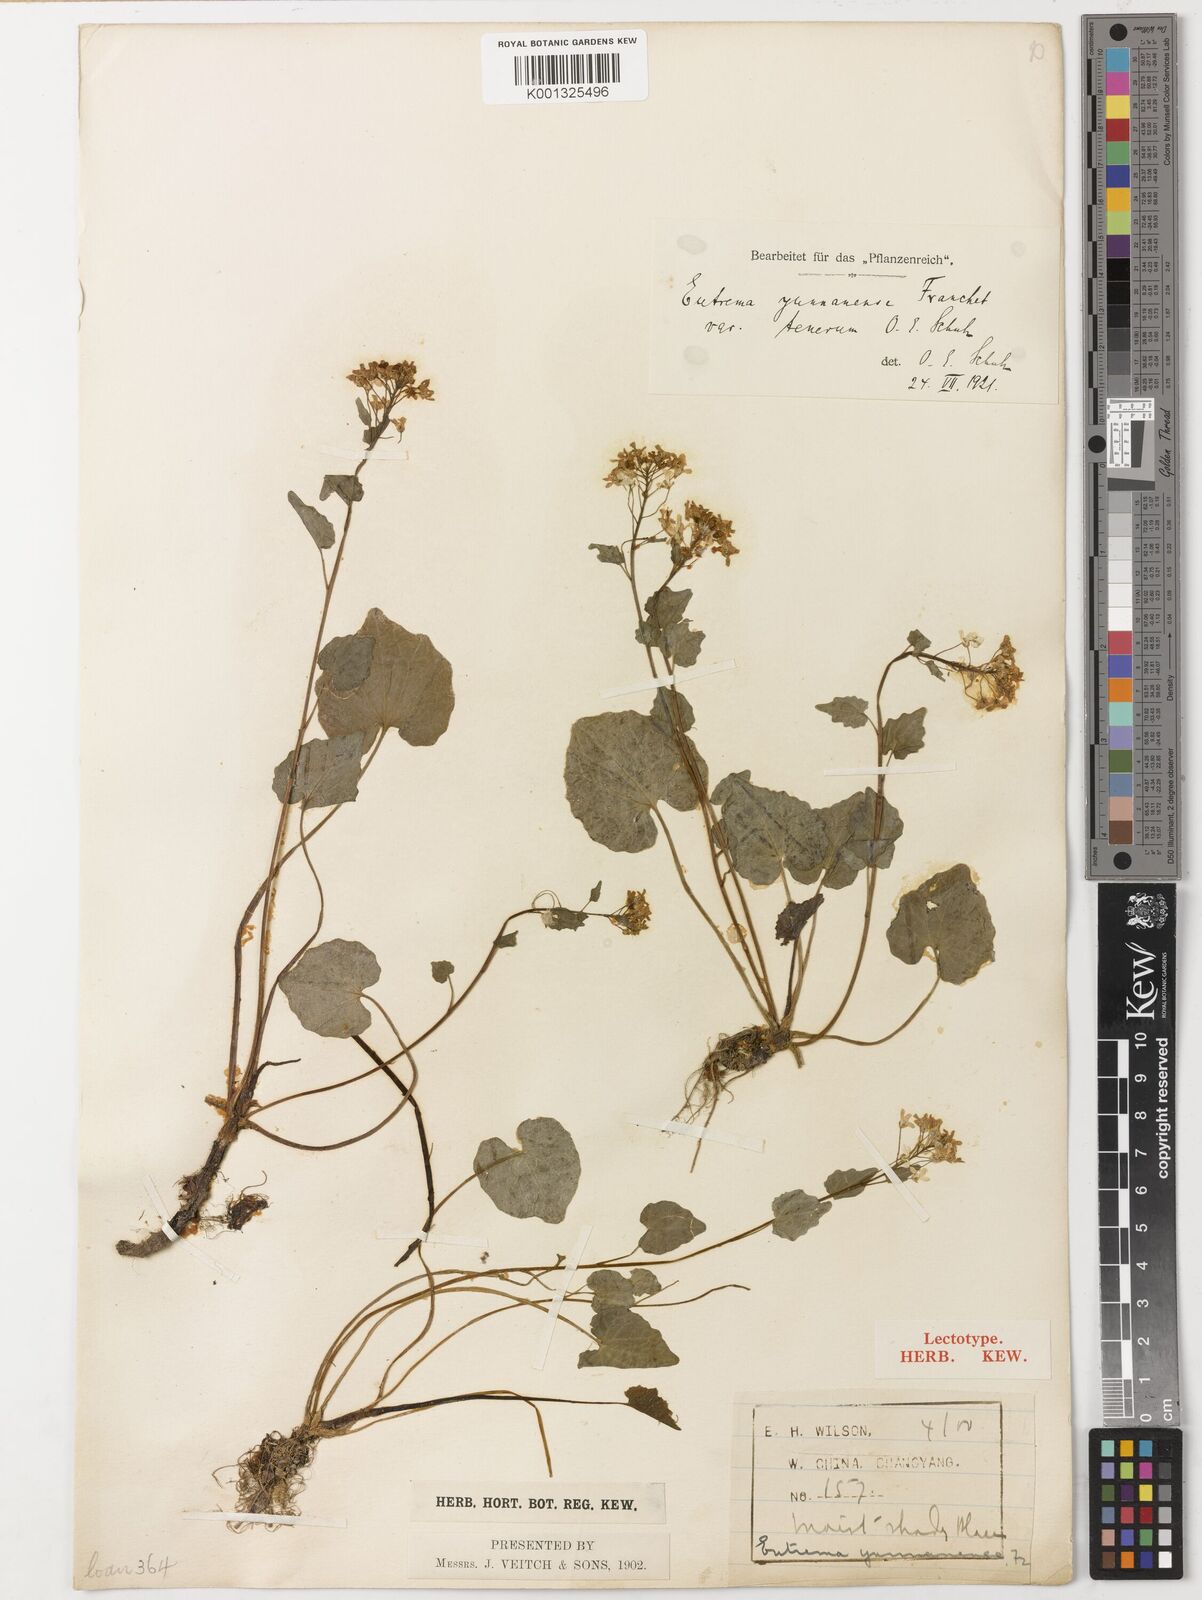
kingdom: Plantae
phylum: Tracheophyta
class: Magnoliopsida
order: Brassicales
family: Brassicaceae
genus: Eutrema
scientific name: Eutrema yunnanense
